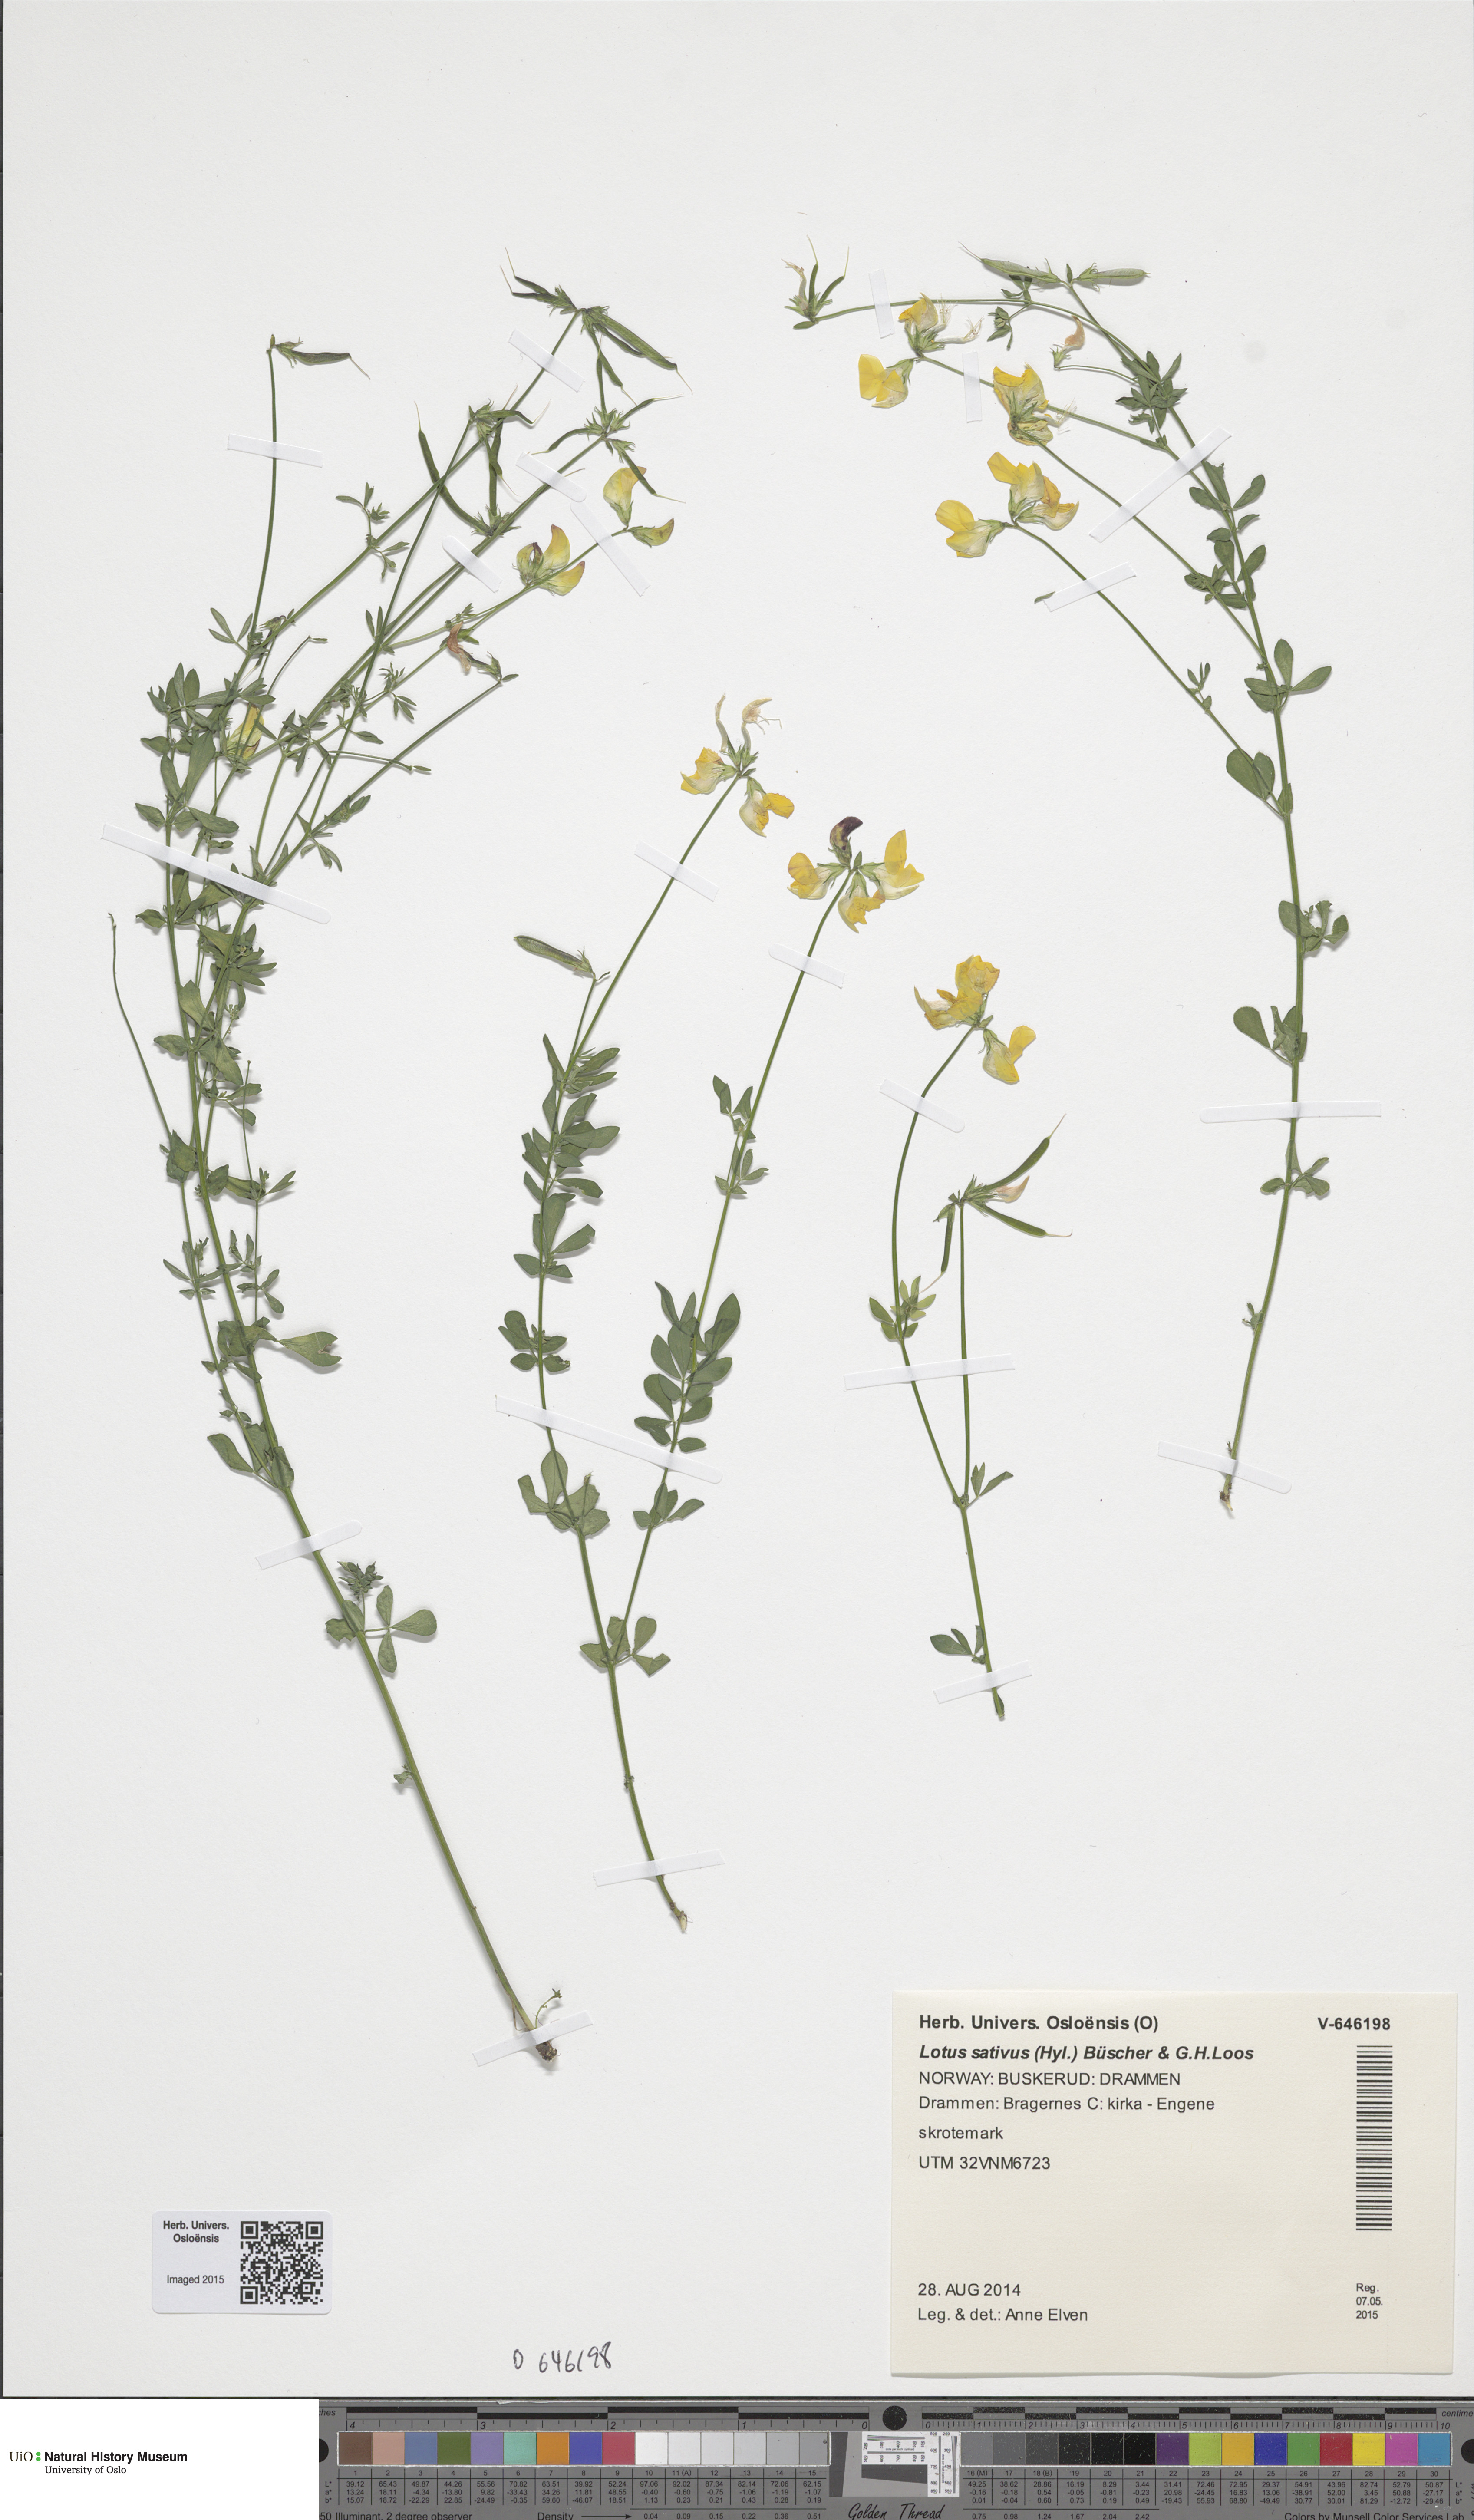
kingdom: Plantae
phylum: Tracheophyta
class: Magnoliopsida
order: Fabales
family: Fabaceae
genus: Lotus
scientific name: Lotus corniculatus
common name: Common bird's-foot-trefoil
